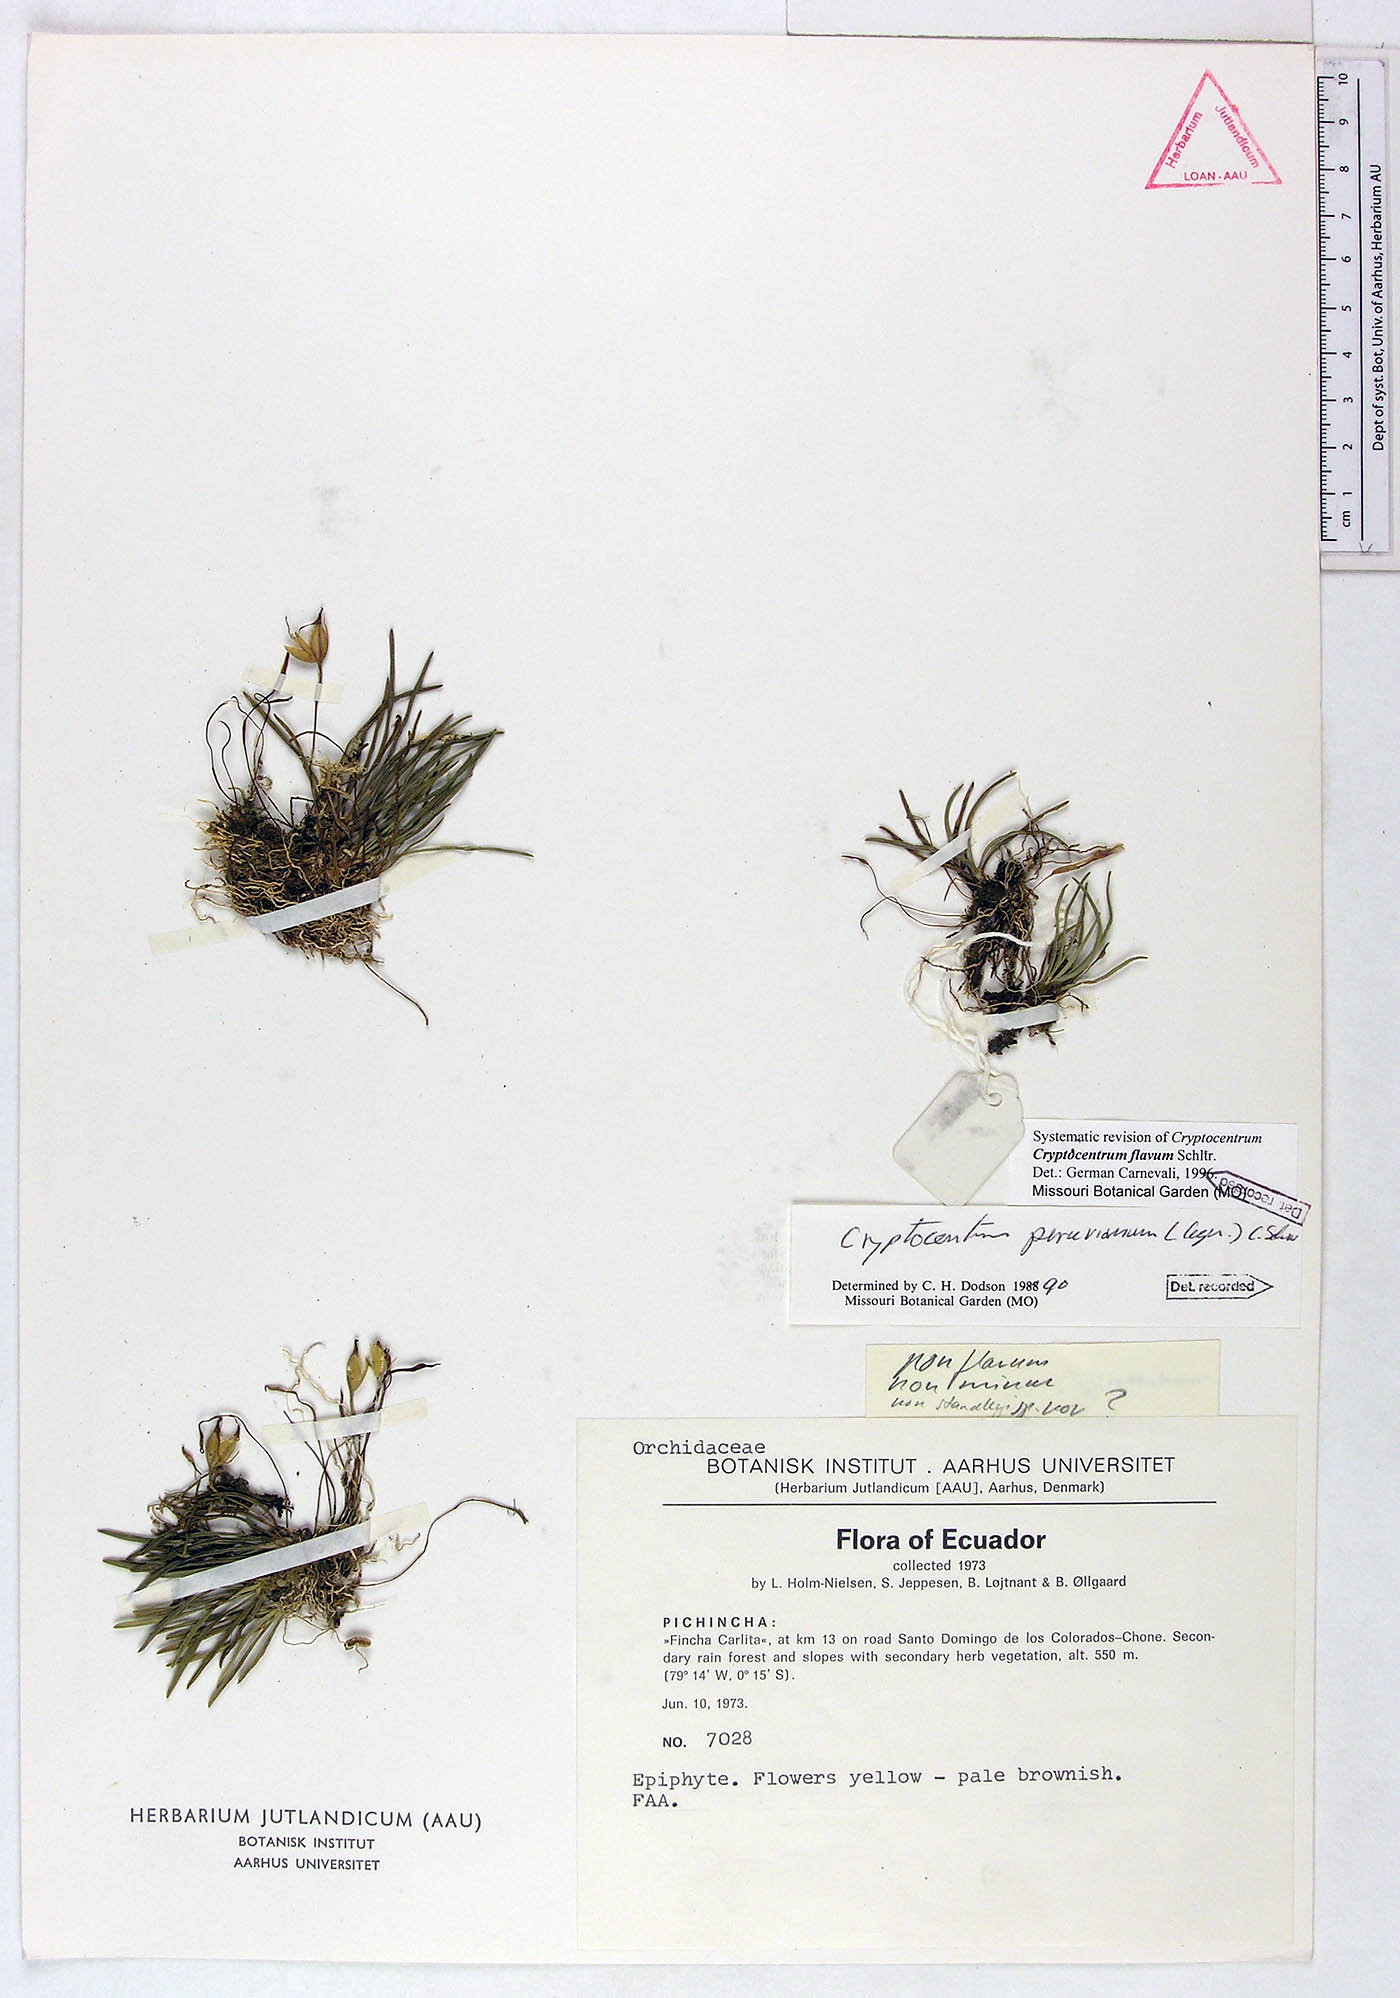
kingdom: Plantae
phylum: Tracheophyta
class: Liliopsida
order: Asparagales
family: Orchidaceae
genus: Maxillaria
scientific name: Maxillaria cryptocentroides
